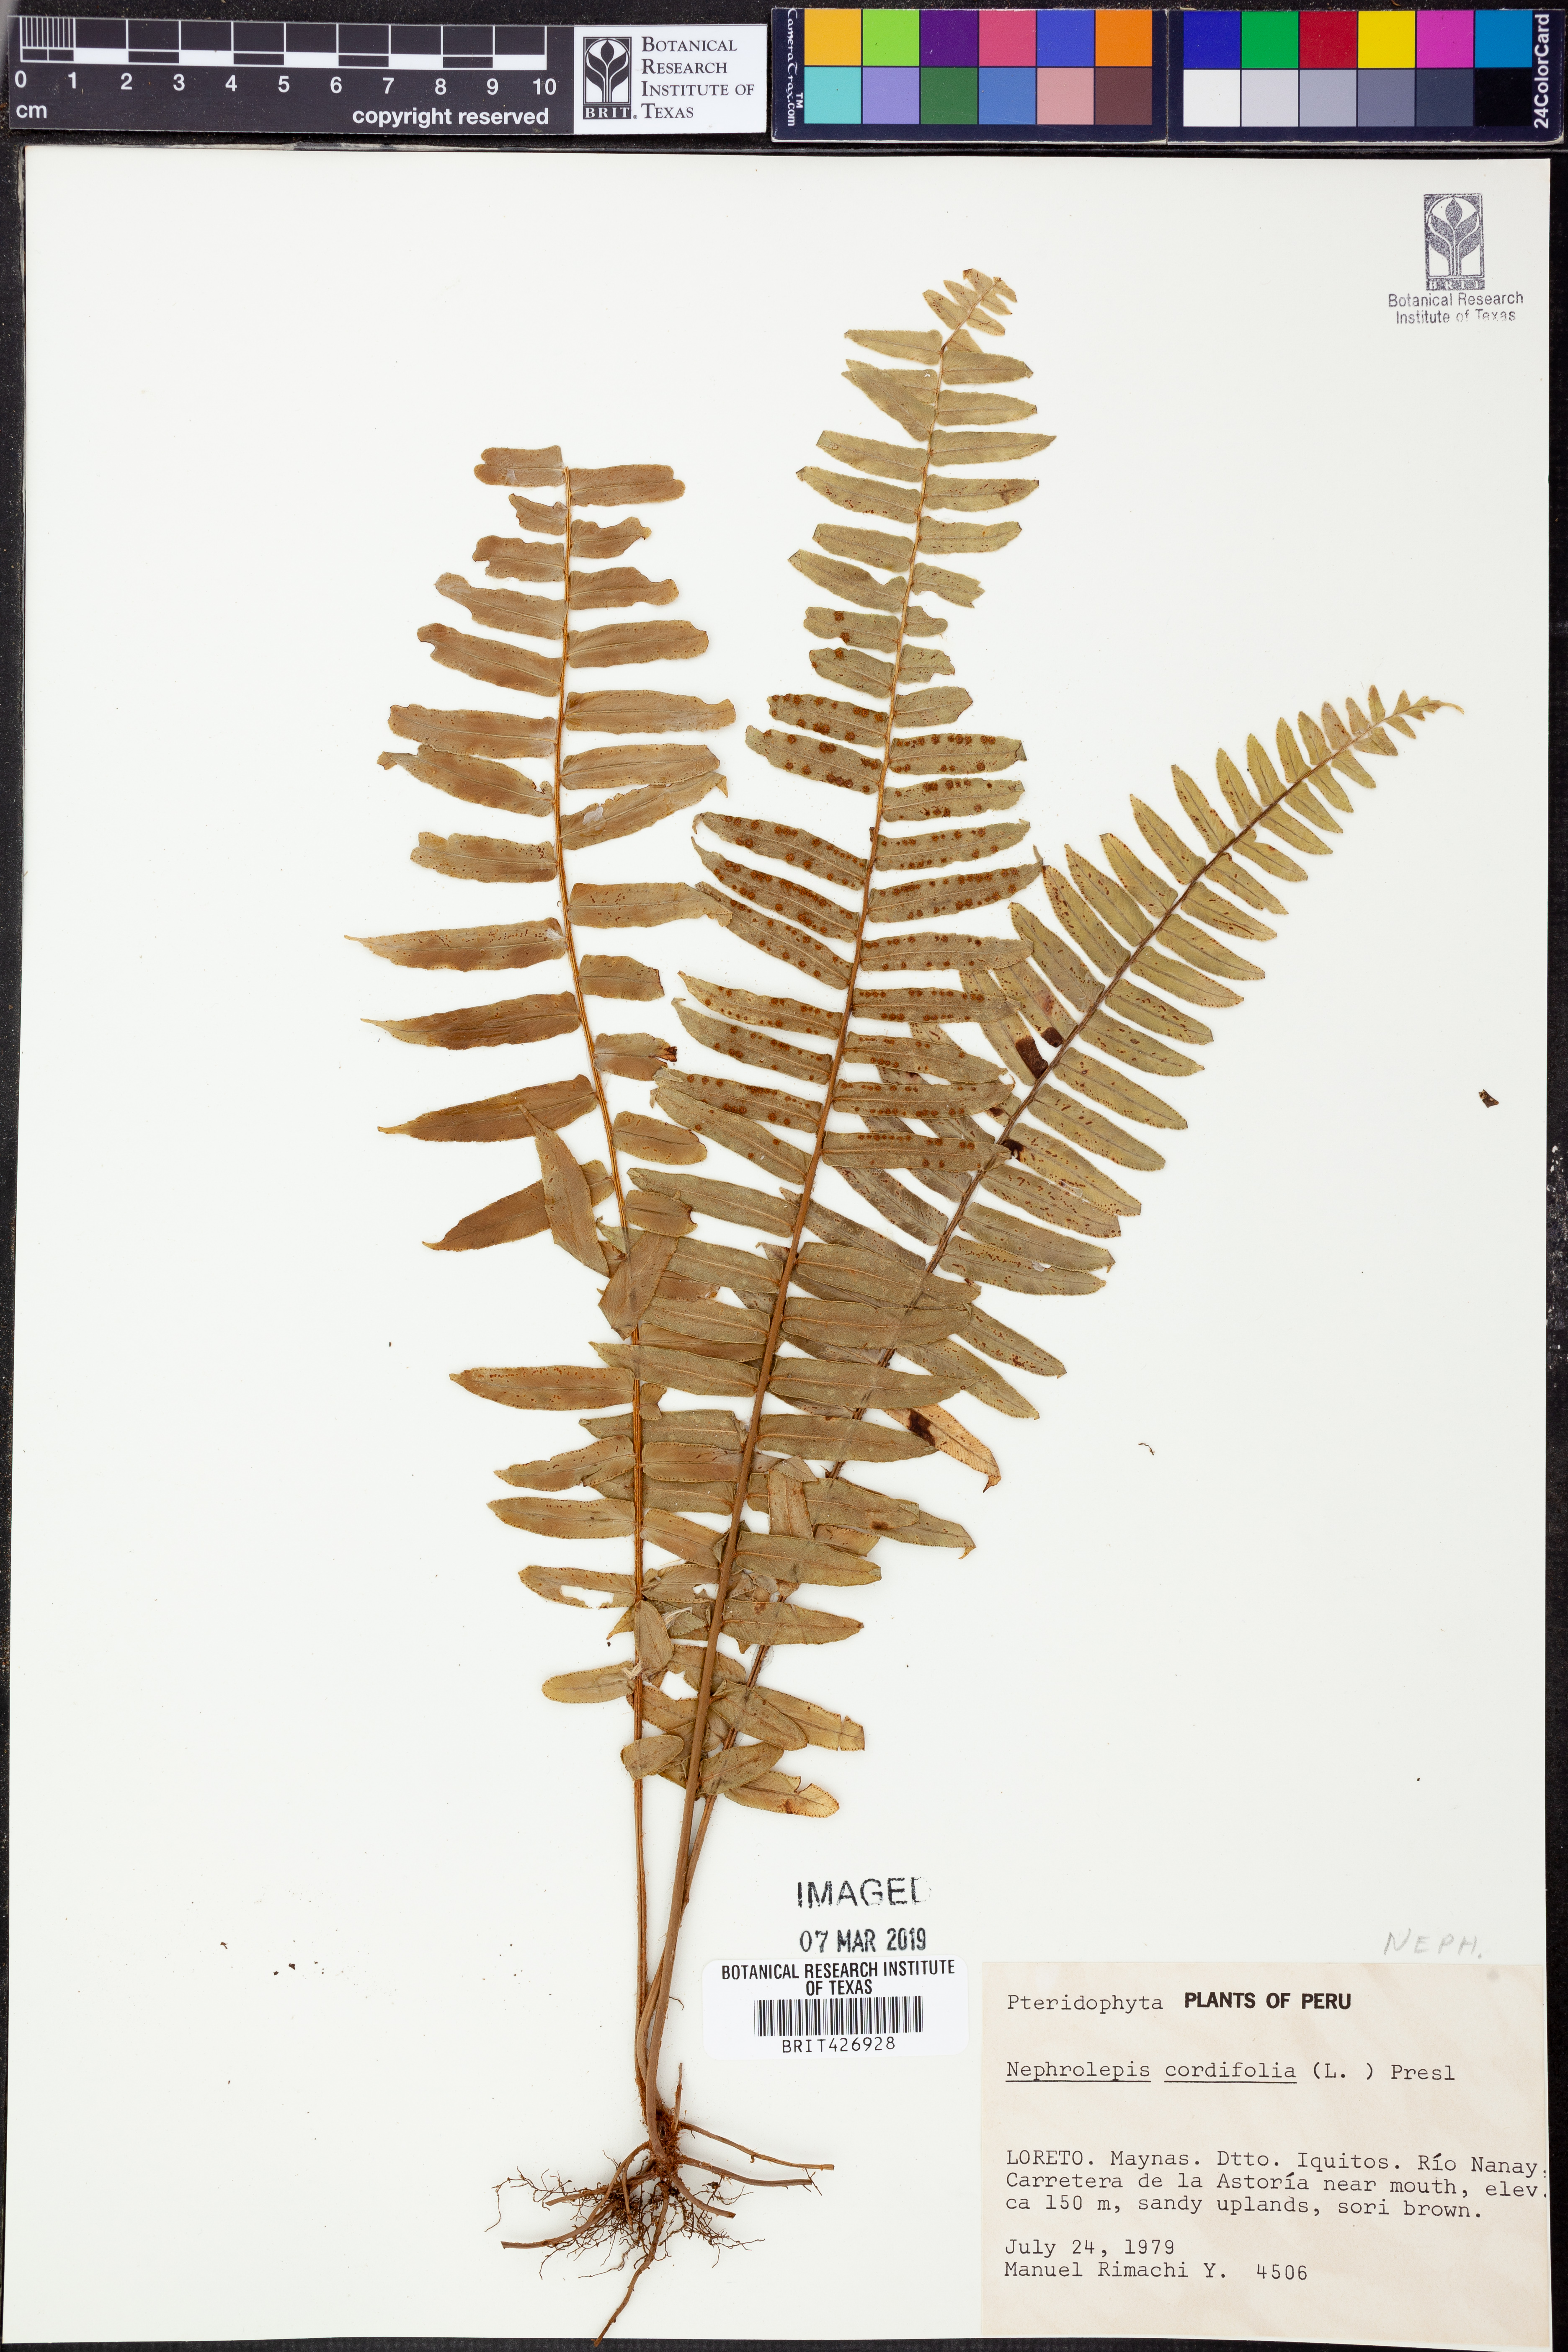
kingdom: Plantae
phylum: Tracheophyta
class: Polypodiopsida
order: Polypodiales
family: Nephrolepidaceae
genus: Nephrolepis
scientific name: Nephrolepis cordifolia
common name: Narrow swordfern
